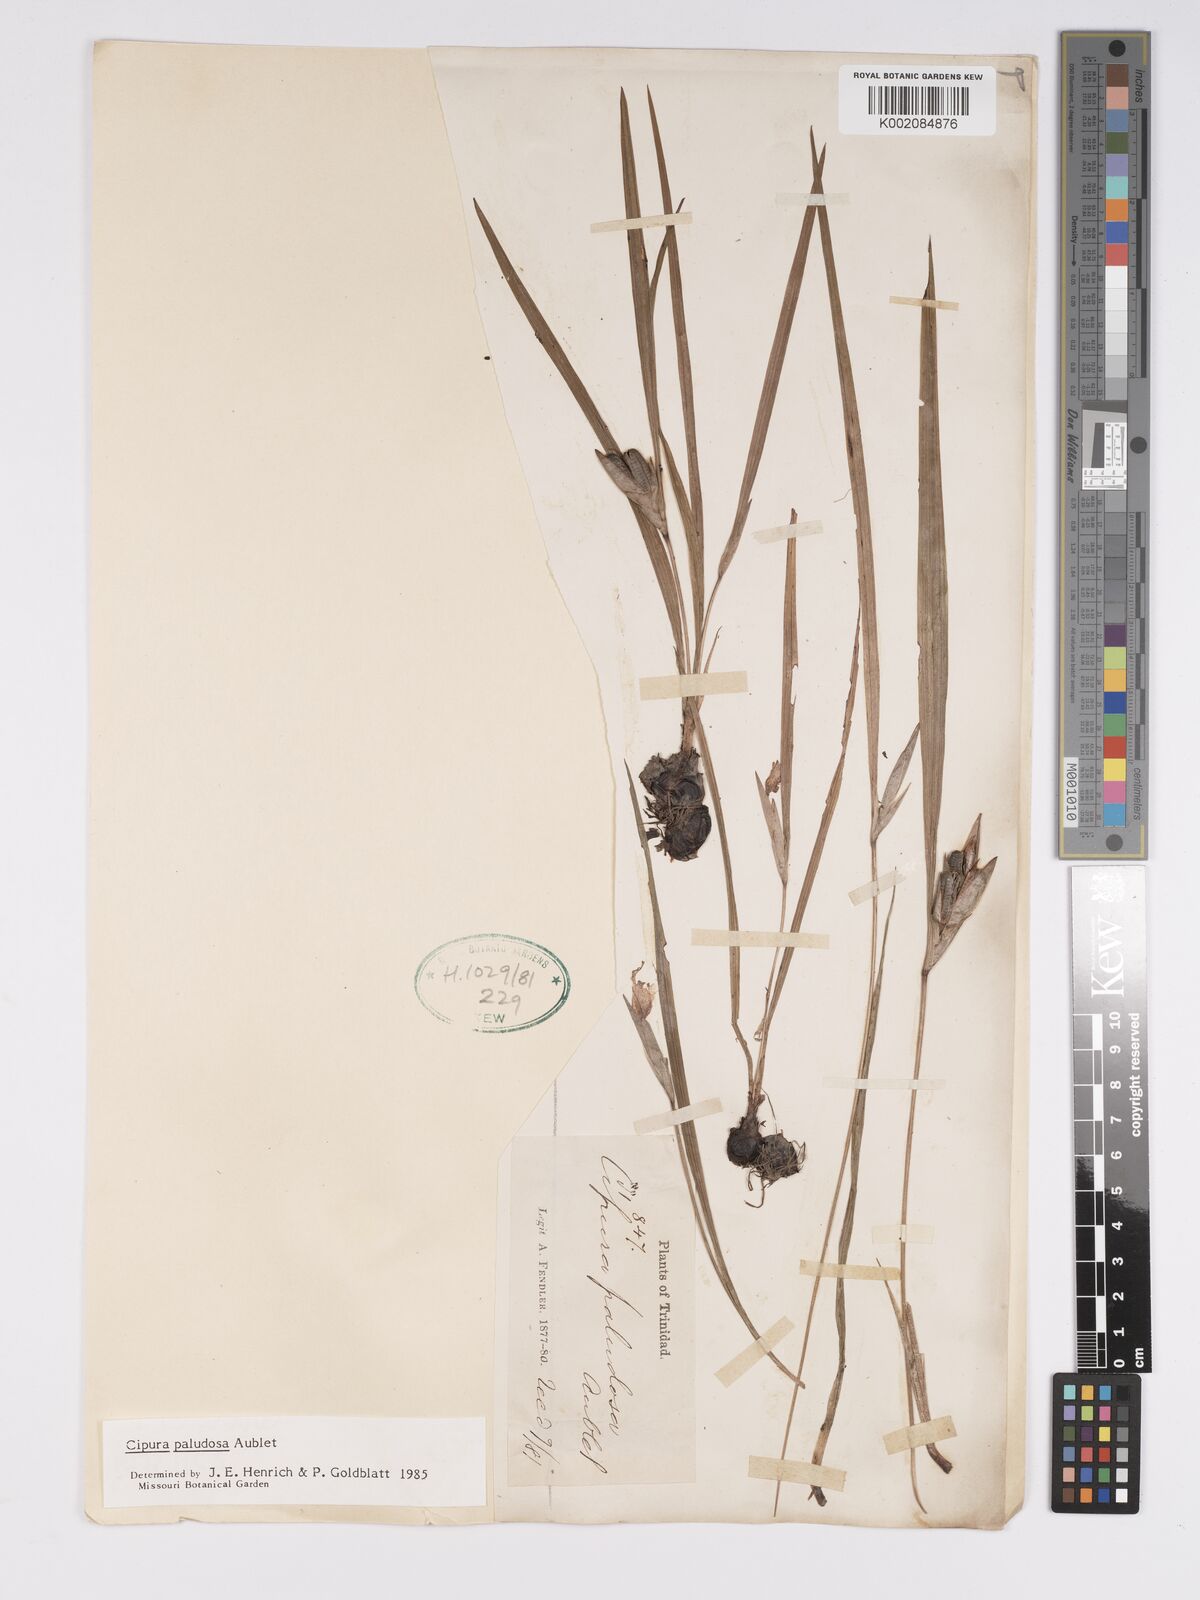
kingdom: Plantae
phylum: Tracheophyta
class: Liliopsida
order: Asparagales
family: Iridaceae
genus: Cipura
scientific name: Cipura paludosa
